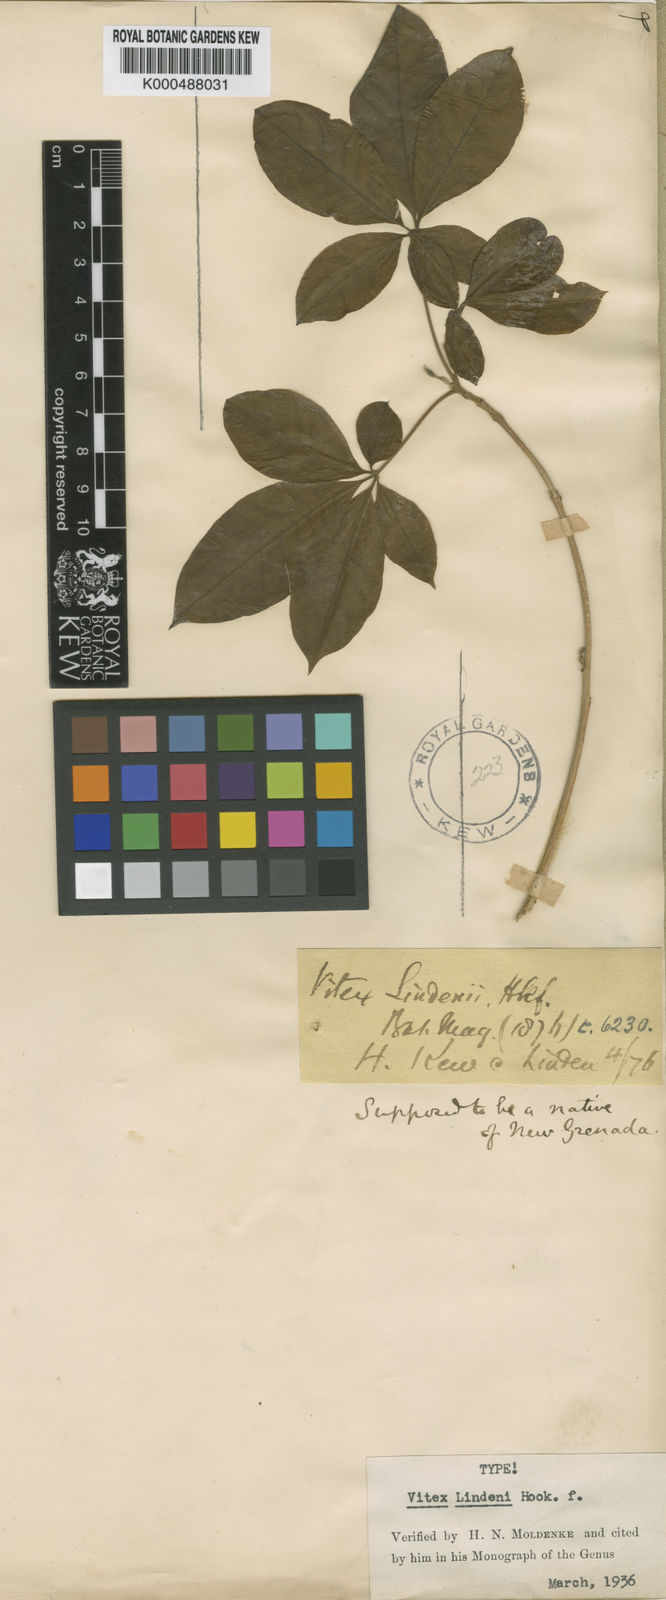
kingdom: Plantae
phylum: Tracheophyta
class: Magnoliopsida
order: Lamiales
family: Lamiaceae
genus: Vitex
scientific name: Vitex lindenii
